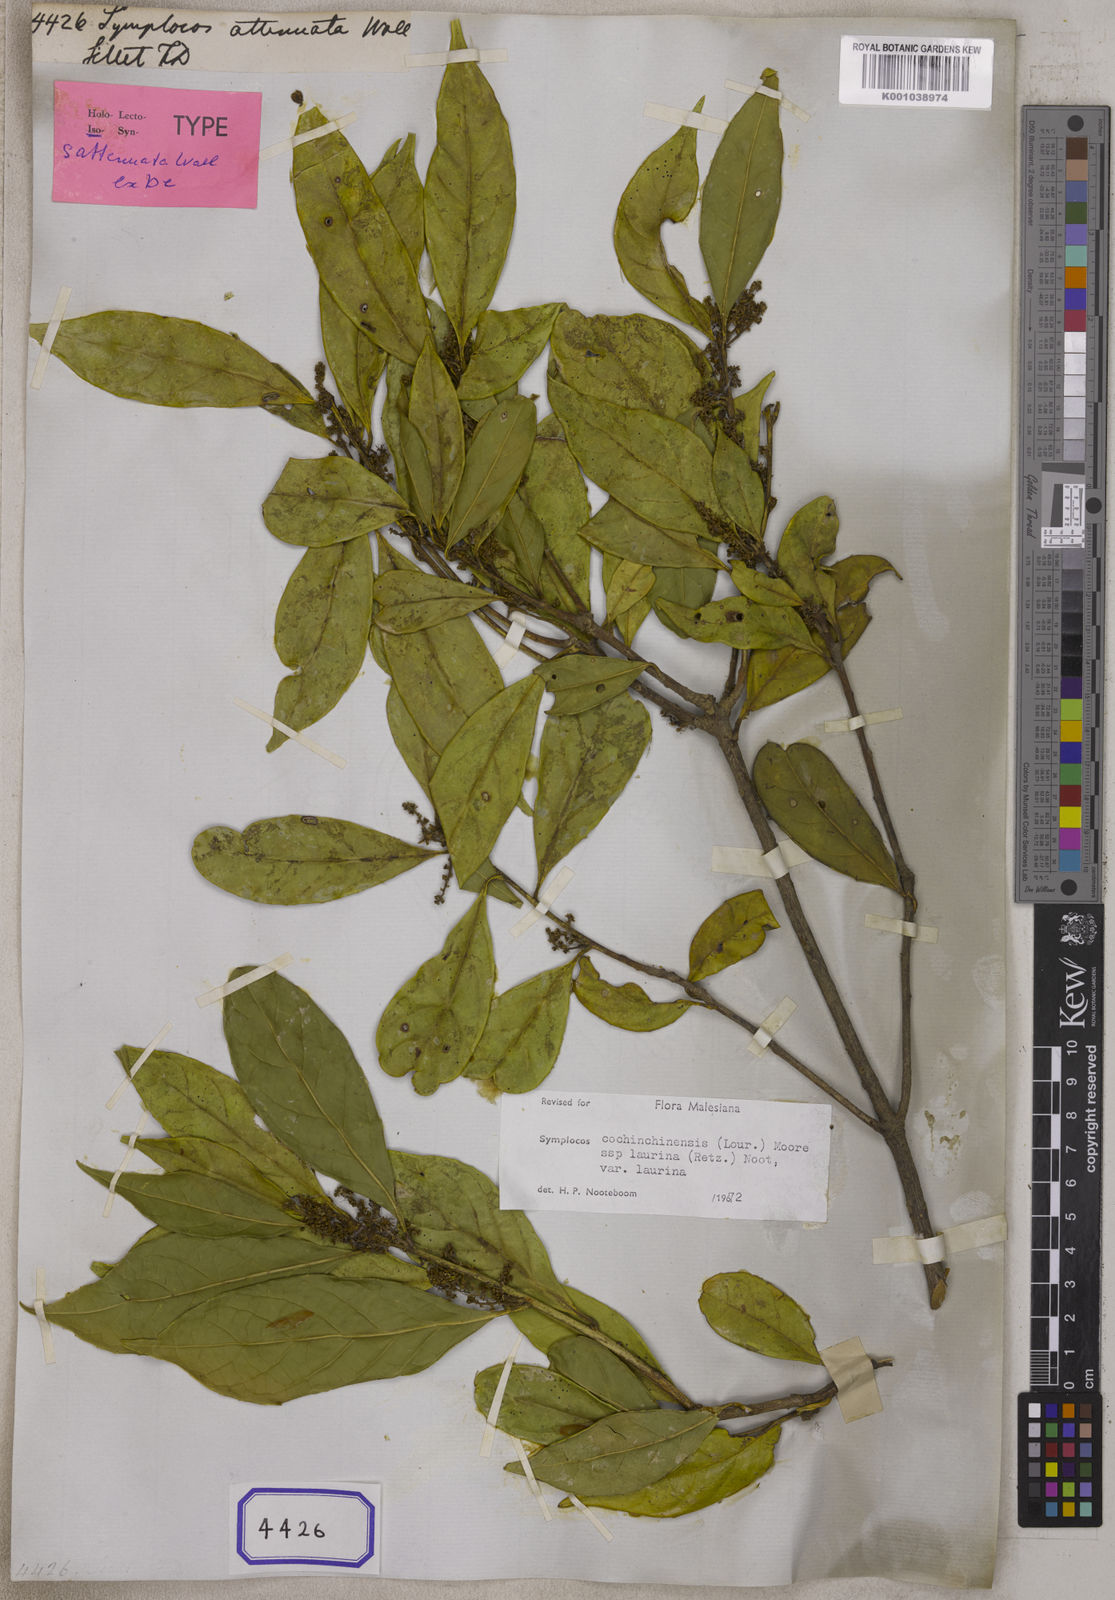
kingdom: Plantae
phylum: Tracheophyta
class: Magnoliopsida
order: Ericales
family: Symplocaceae
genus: Symplocos
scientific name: Symplocos acuminata
